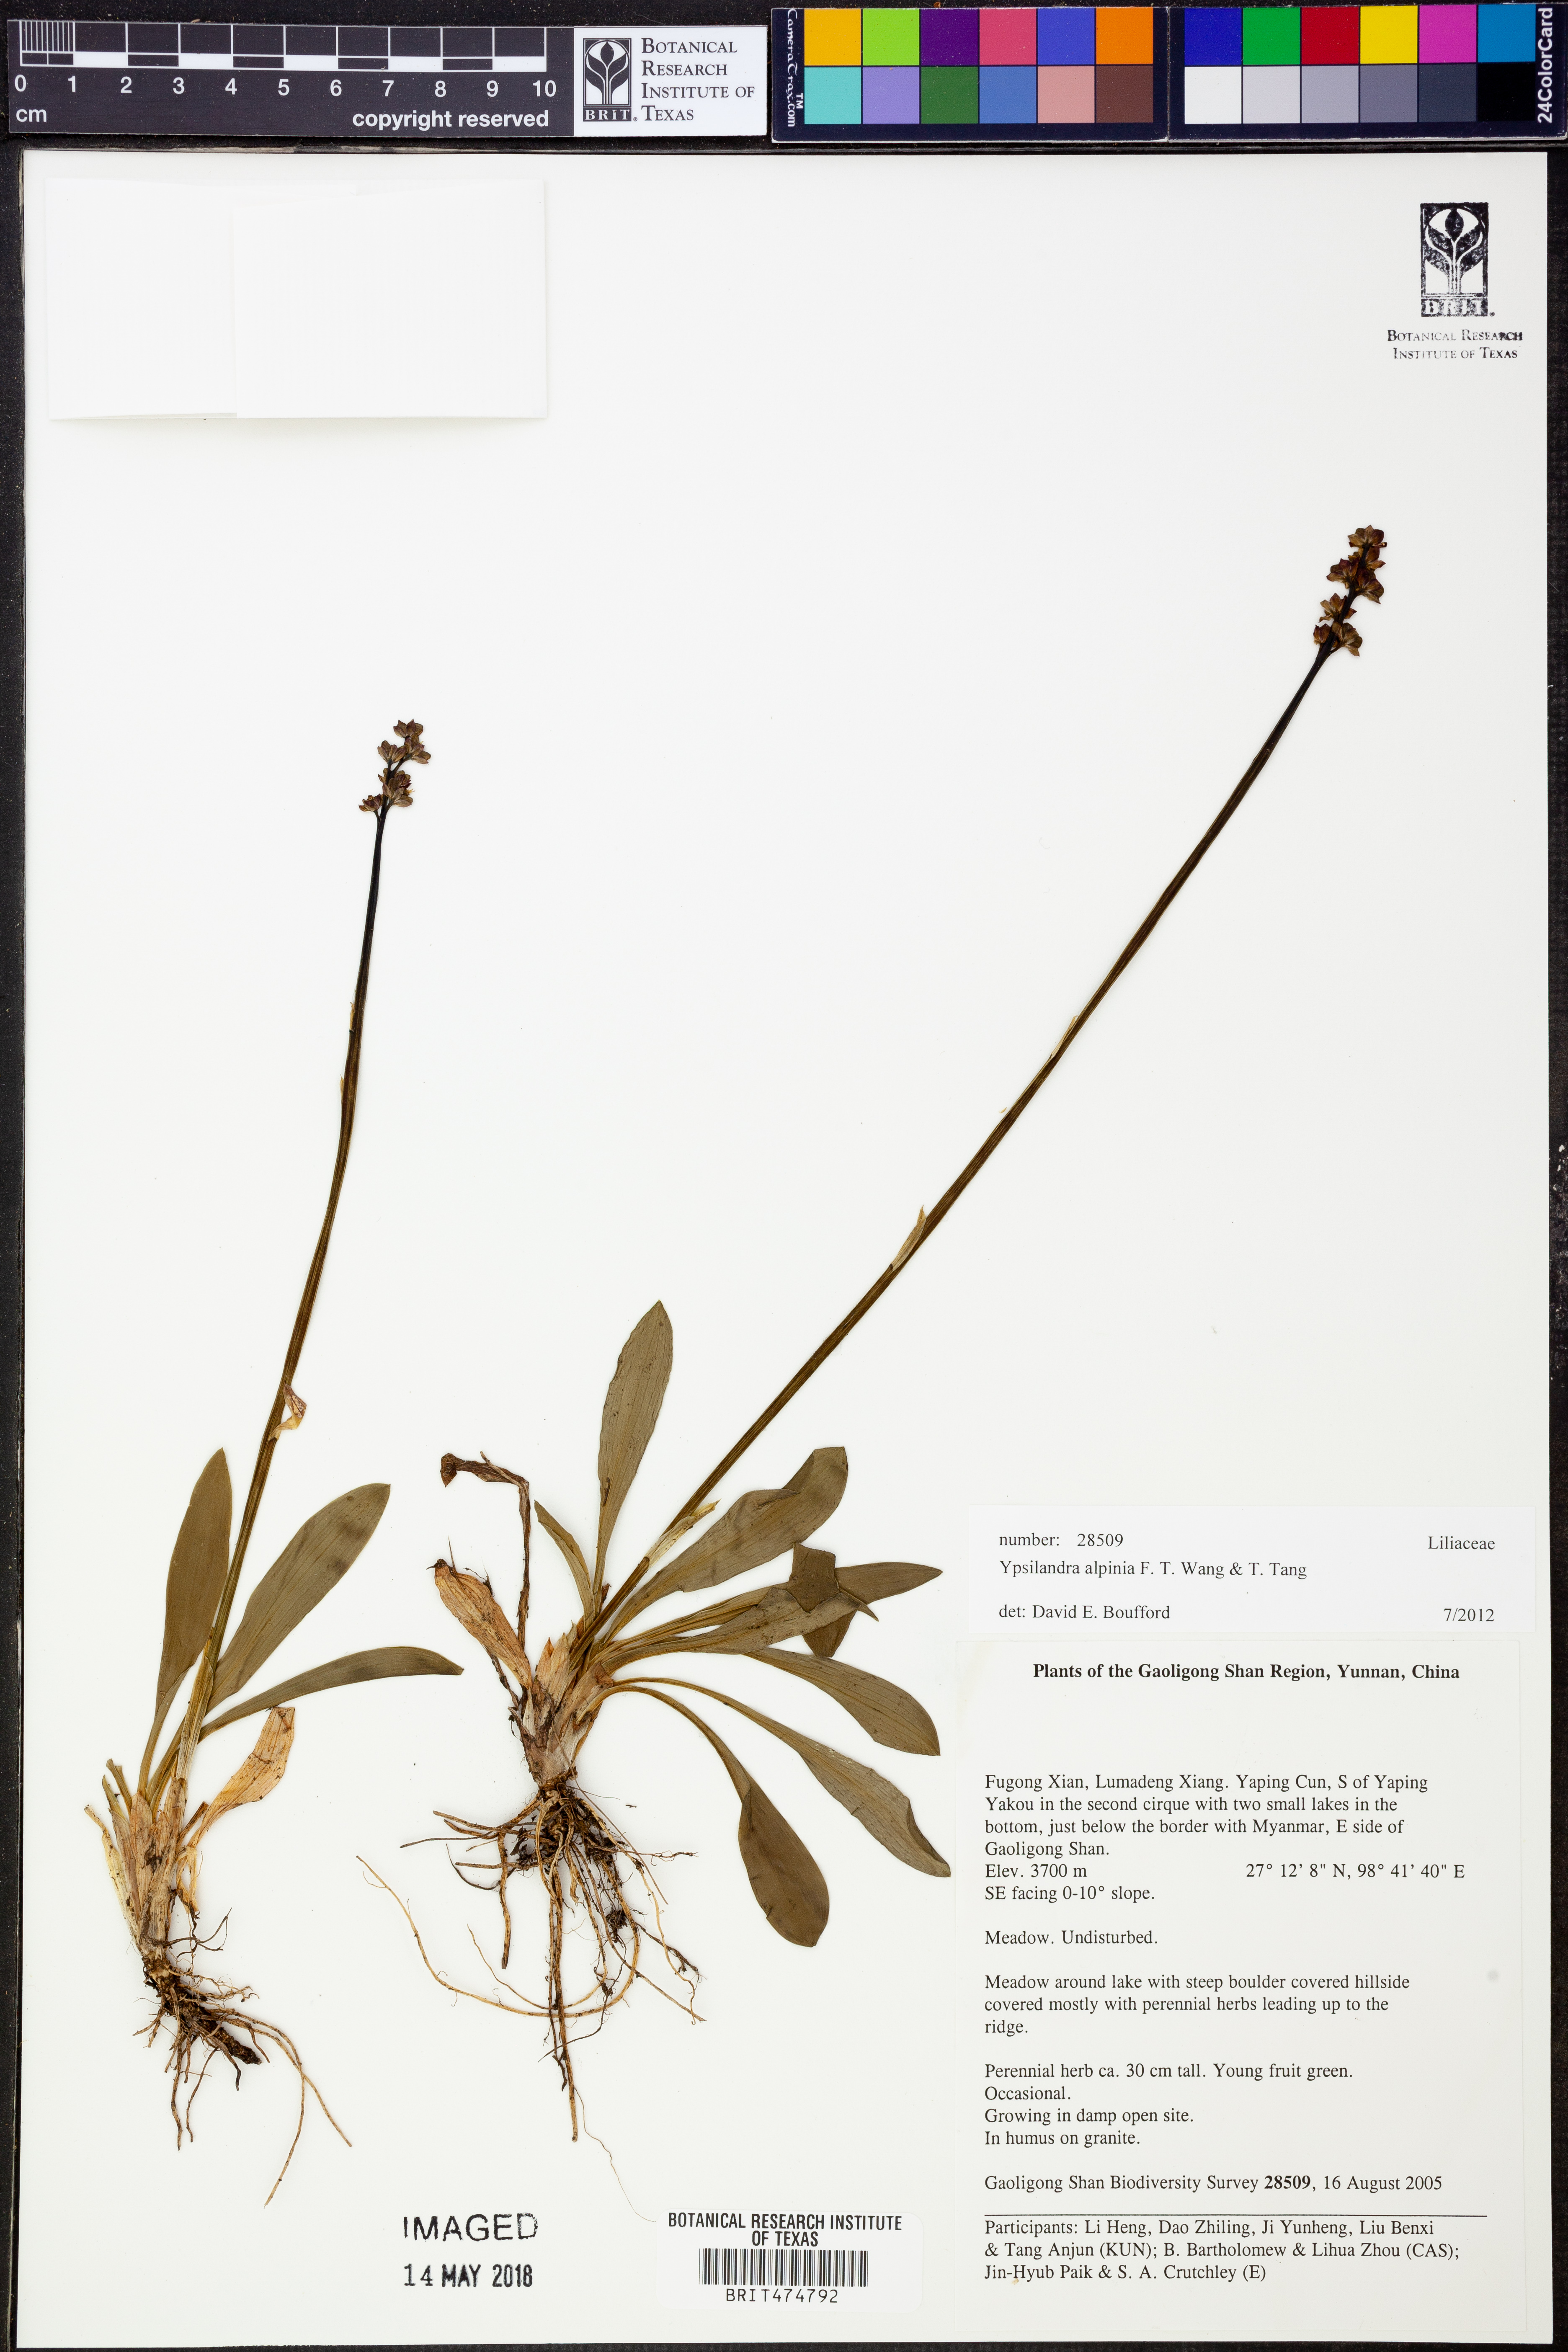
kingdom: Plantae
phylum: Tracheophyta
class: Liliopsida
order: Liliales
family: Melanthiaceae
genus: Helonias
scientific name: Helonias alpina
